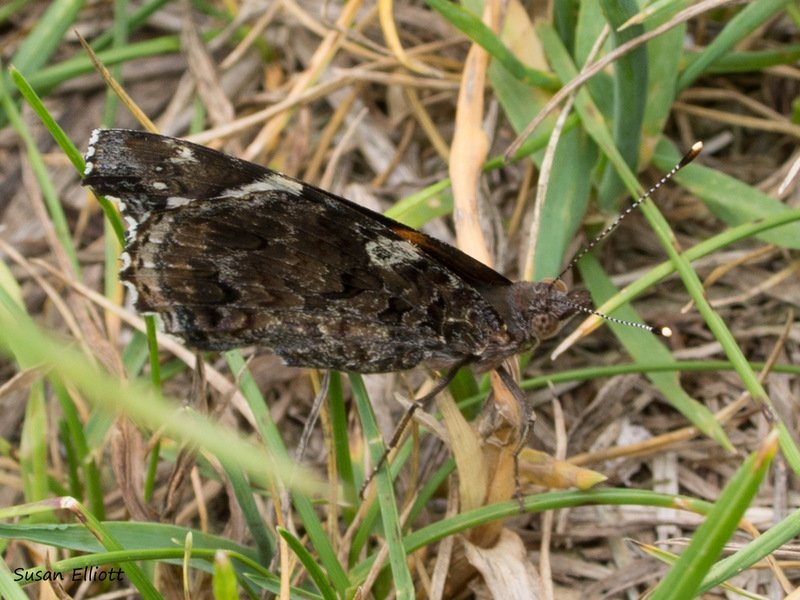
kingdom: Animalia
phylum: Arthropoda
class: Insecta
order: Lepidoptera
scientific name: Lepidoptera
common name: Butterflies
